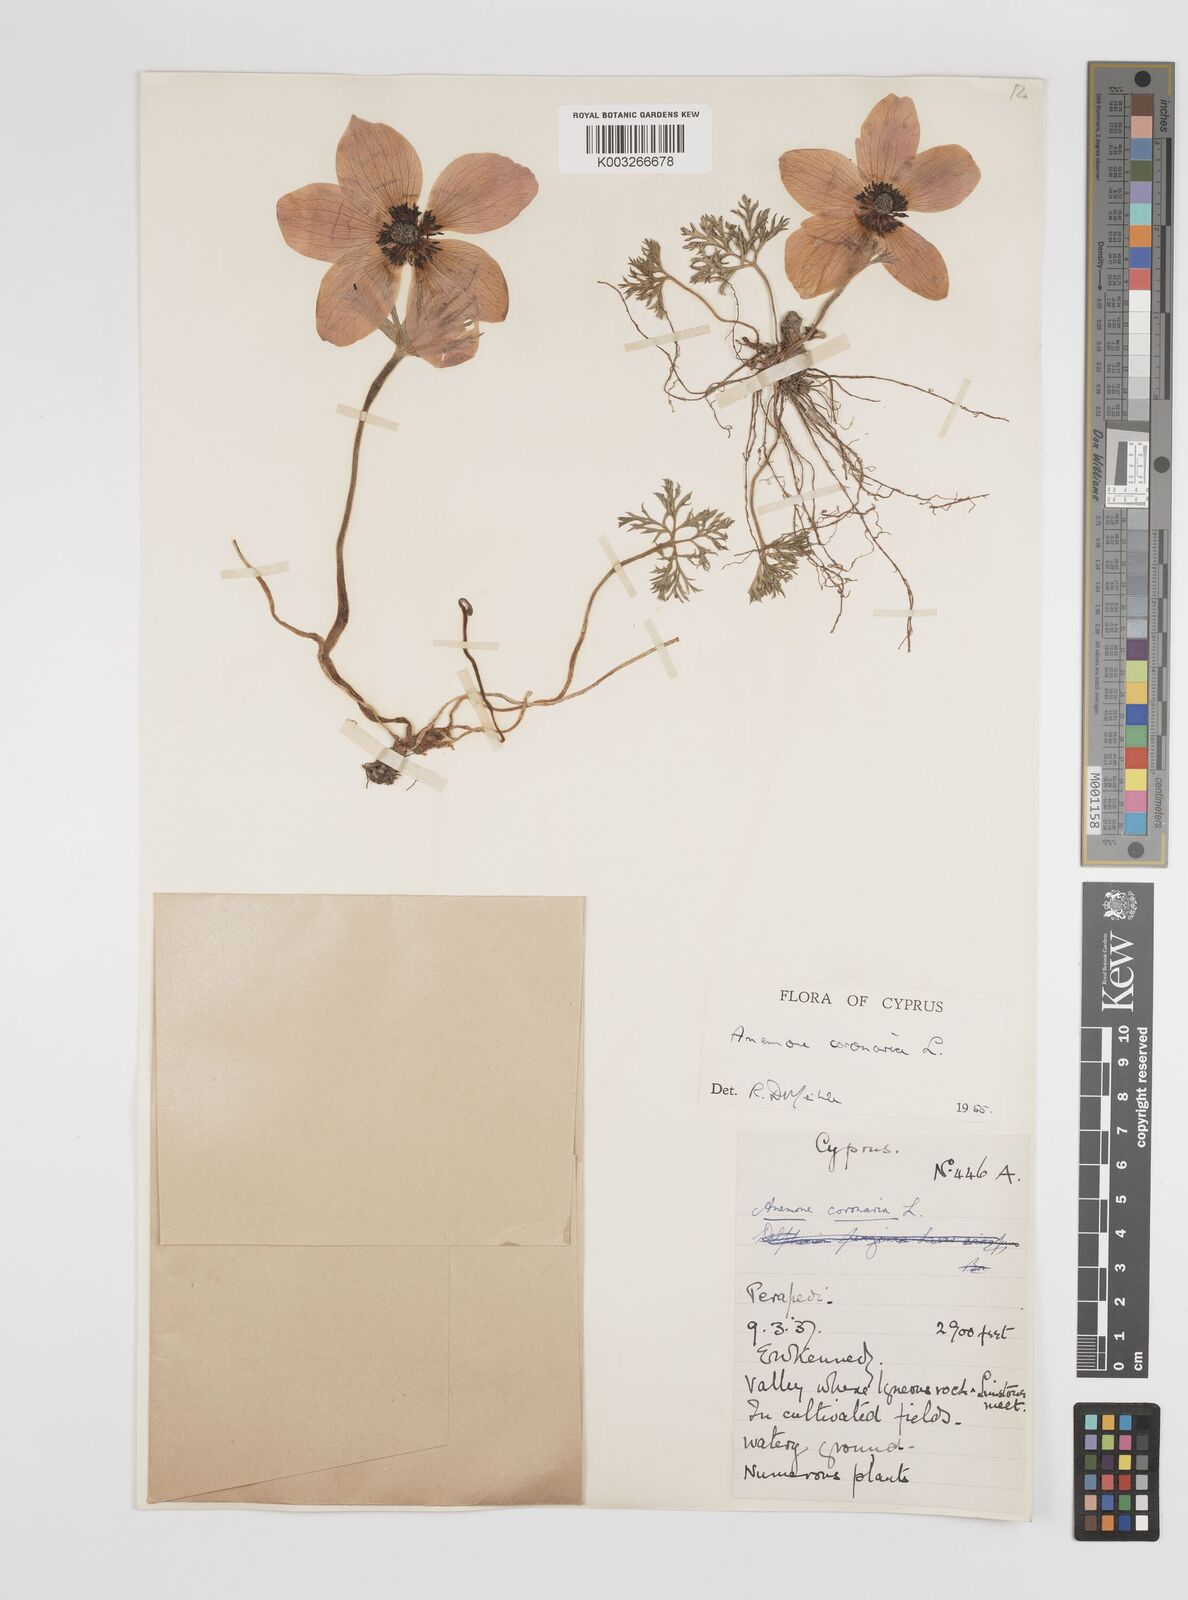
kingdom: Plantae
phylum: Tracheophyta
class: Magnoliopsida
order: Ranunculales
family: Ranunculaceae
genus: Anemone
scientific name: Anemone coronaria
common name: Poppy anemone
